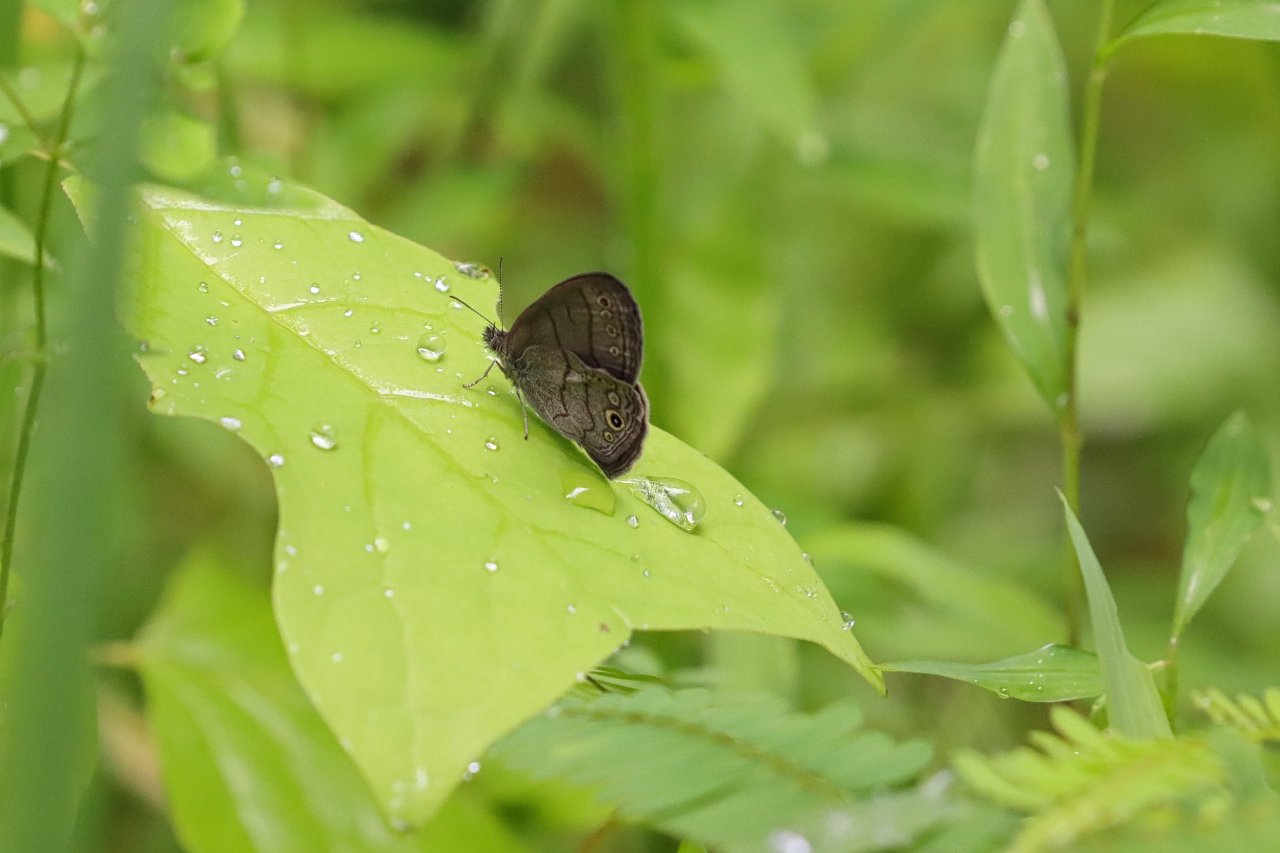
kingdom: Animalia
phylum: Arthropoda
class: Insecta
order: Lepidoptera
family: Nymphalidae
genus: Hermeuptychia
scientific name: Hermeuptychia hermes
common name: Carolina Satyr
